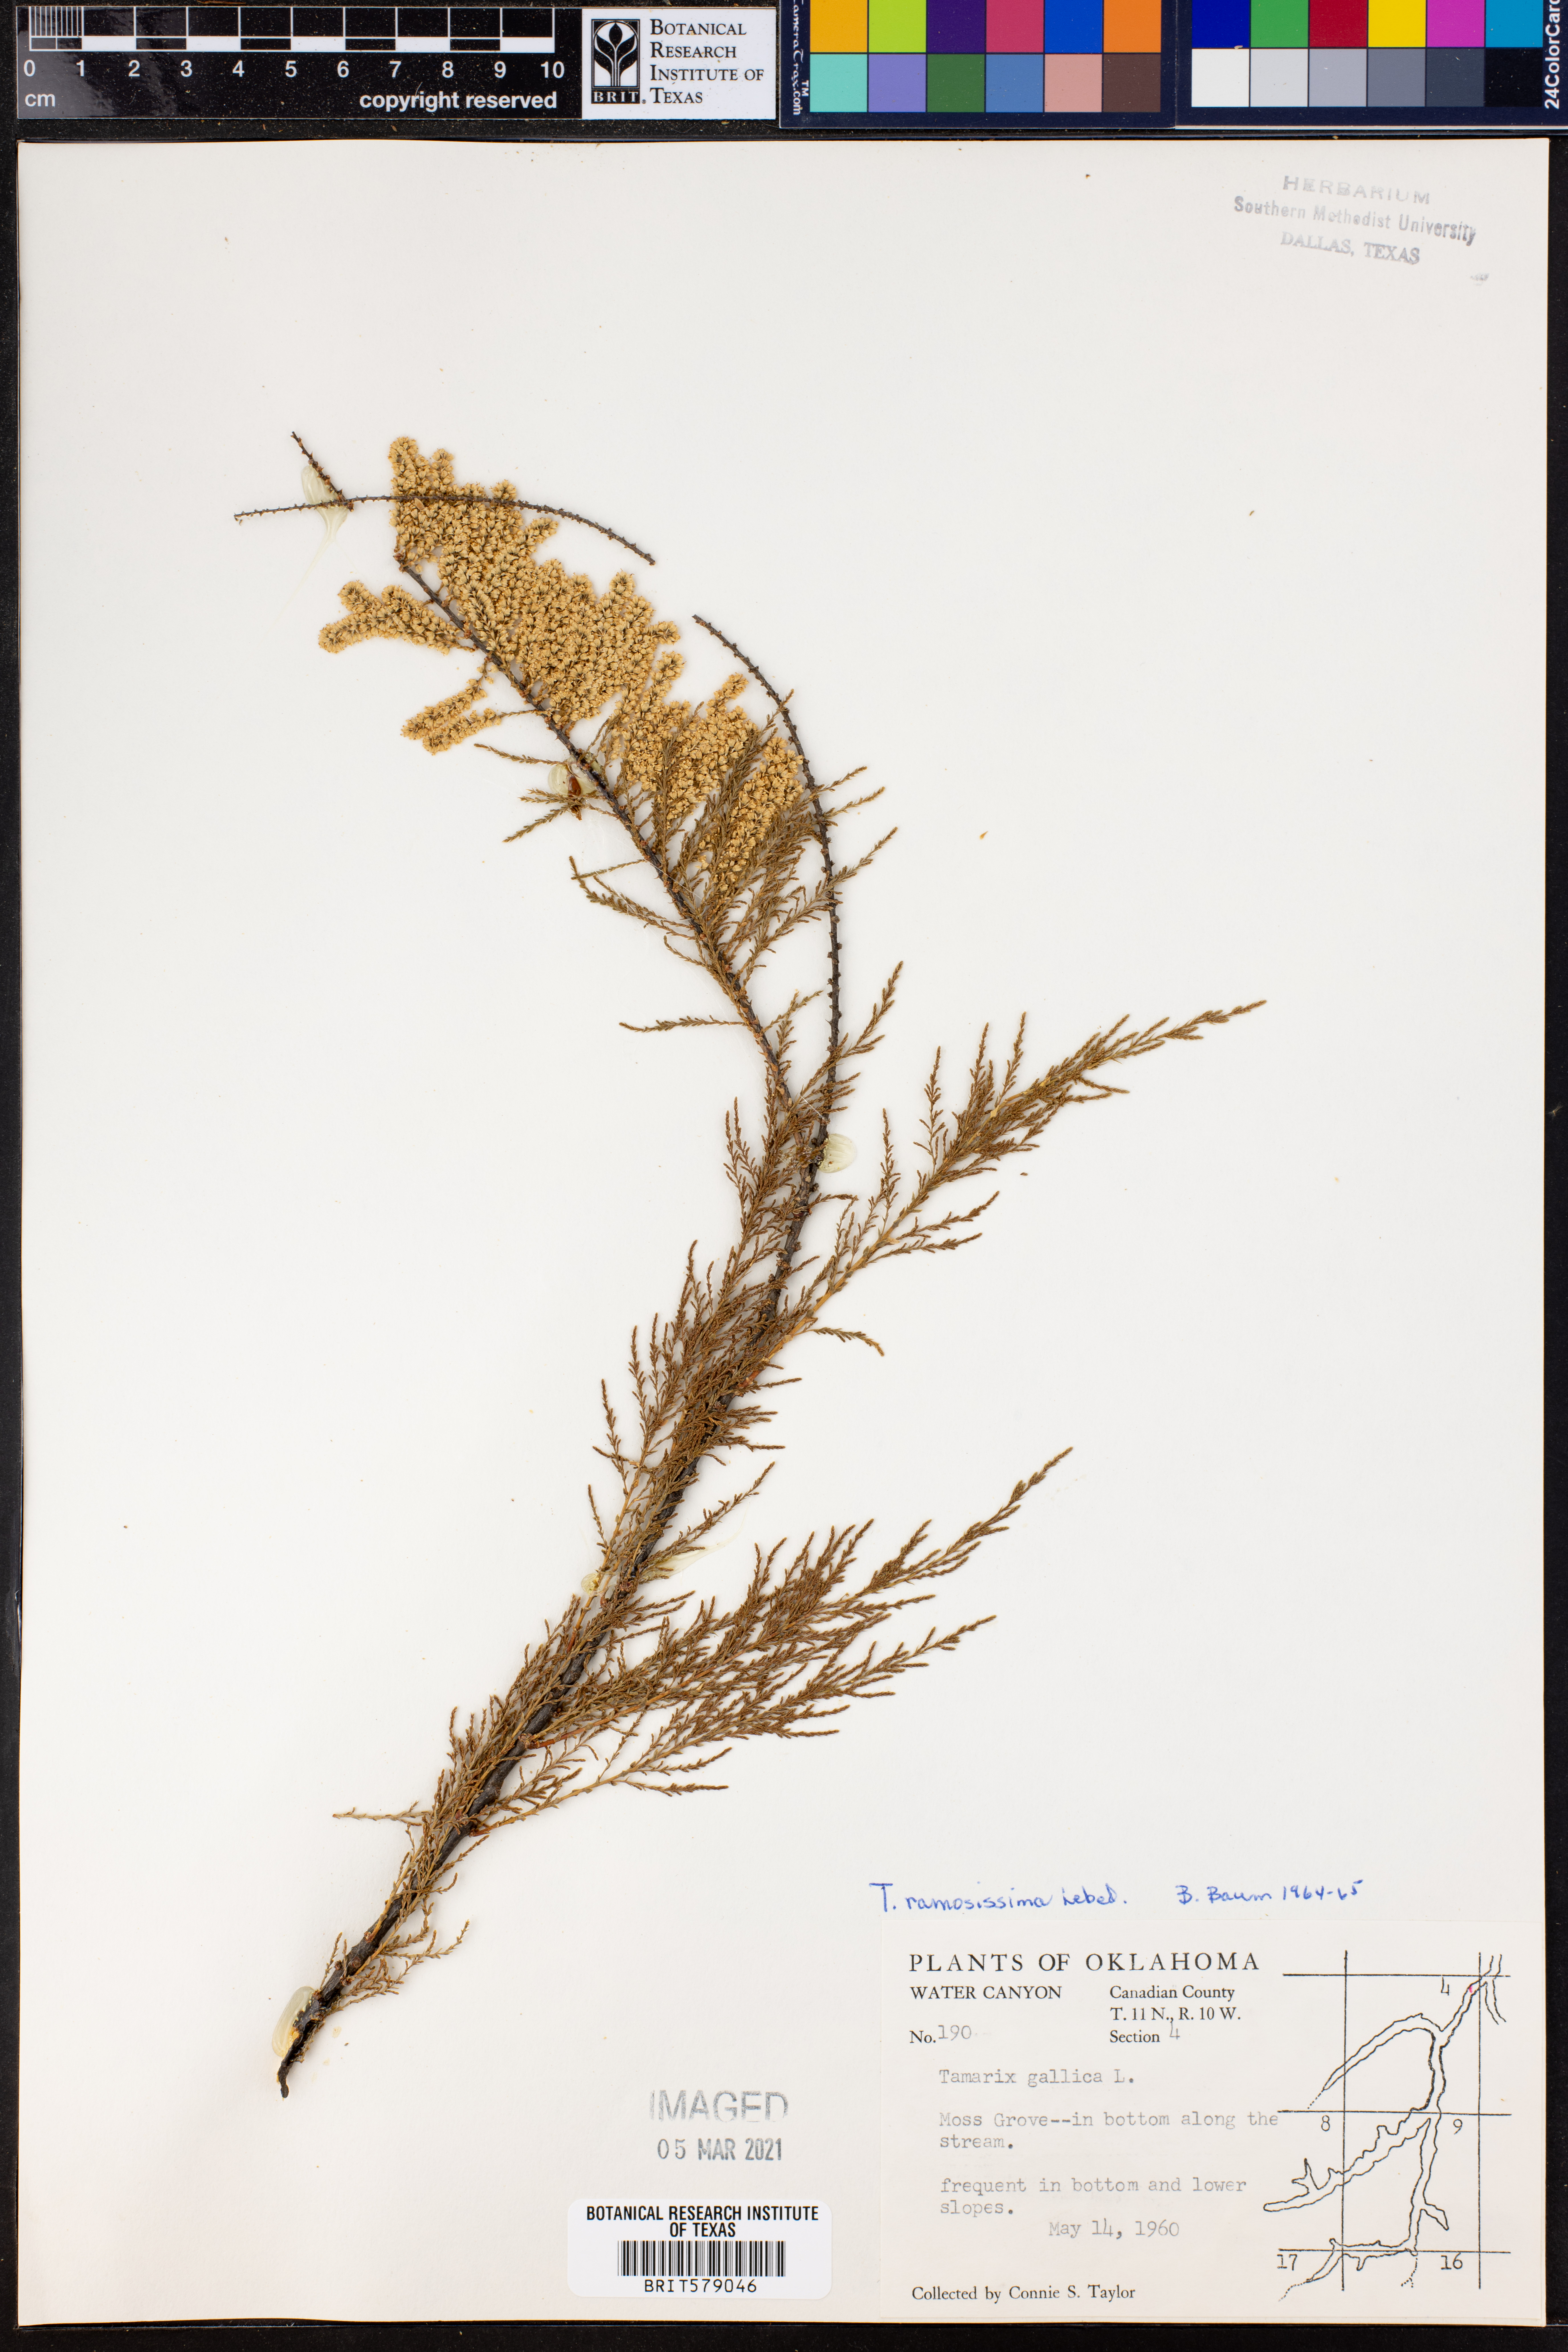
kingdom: Plantae
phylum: Tracheophyta
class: Magnoliopsida
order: Caryophyllales
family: Tamaricaceae
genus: Tamarix
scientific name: Tamarix ramosissima
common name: Pink tamarisk
